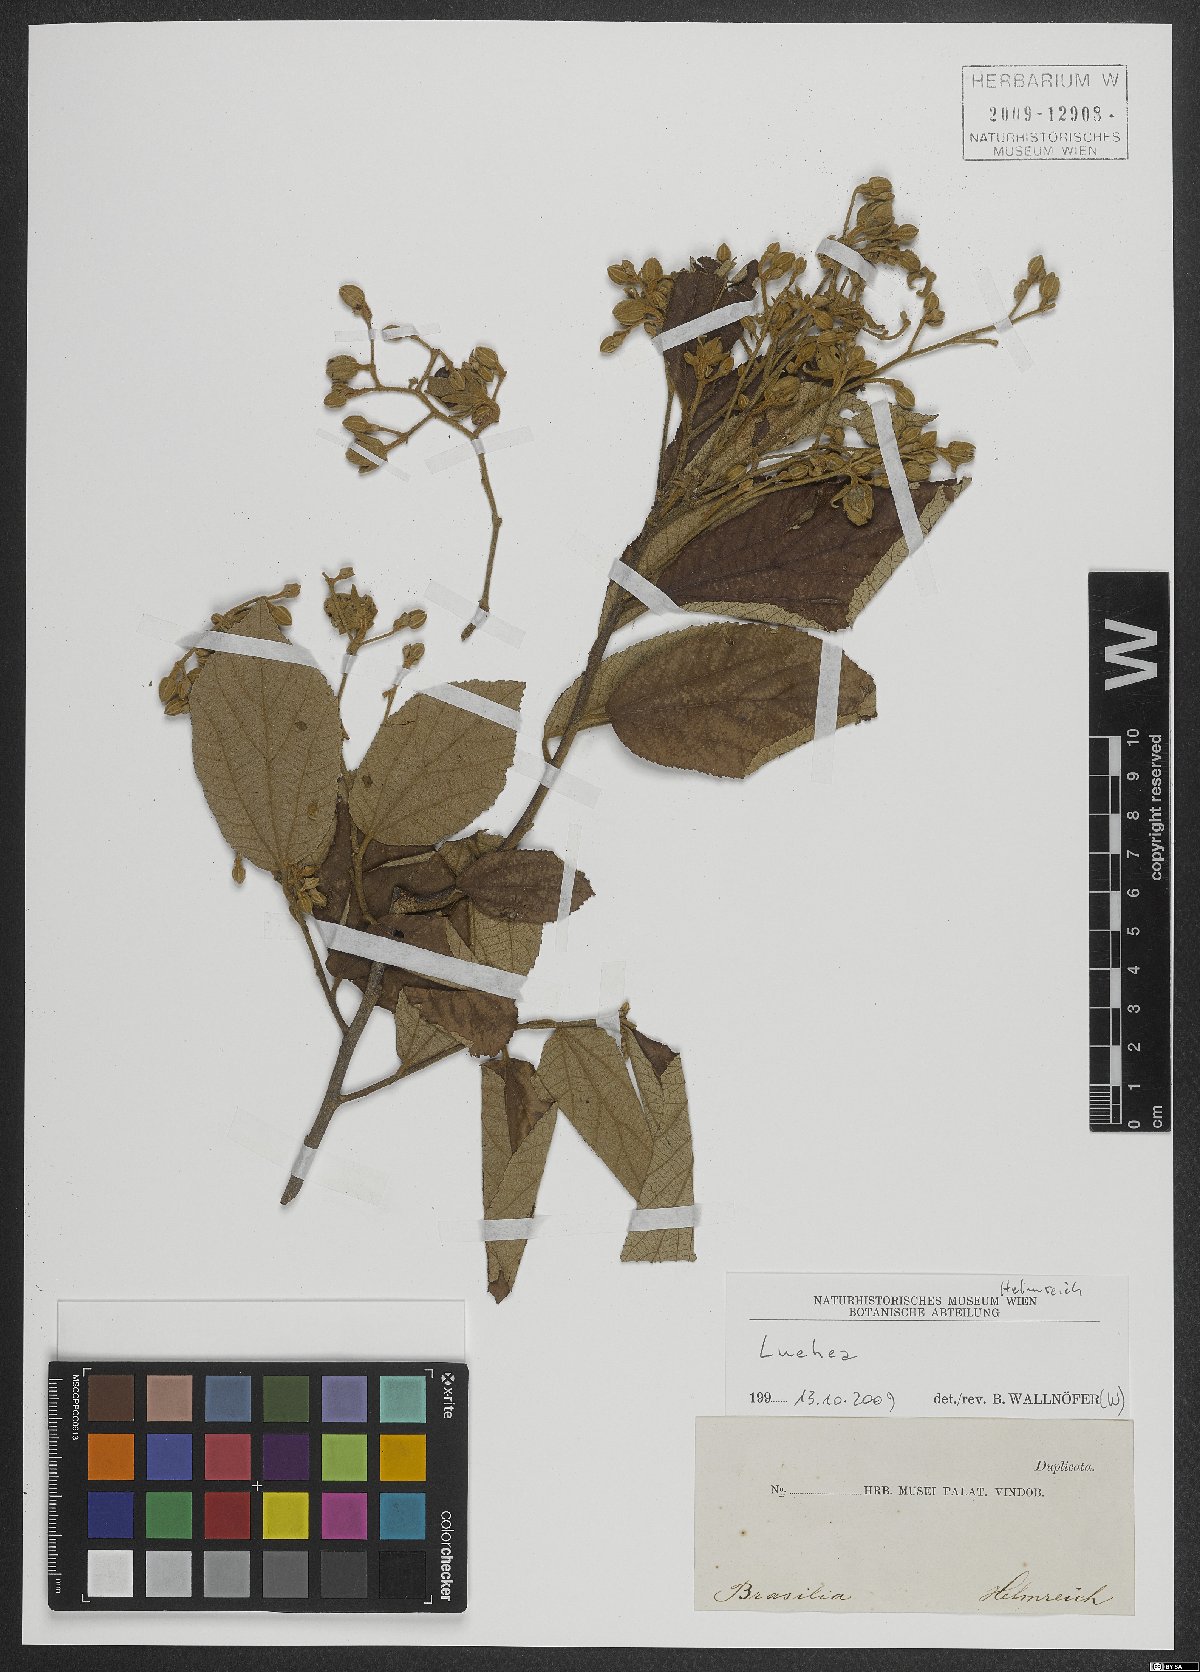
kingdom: Plantae
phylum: Tracheophyta
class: Magnoliopsida
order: Malvales
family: Malvaceae
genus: Luehea
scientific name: Luehea
